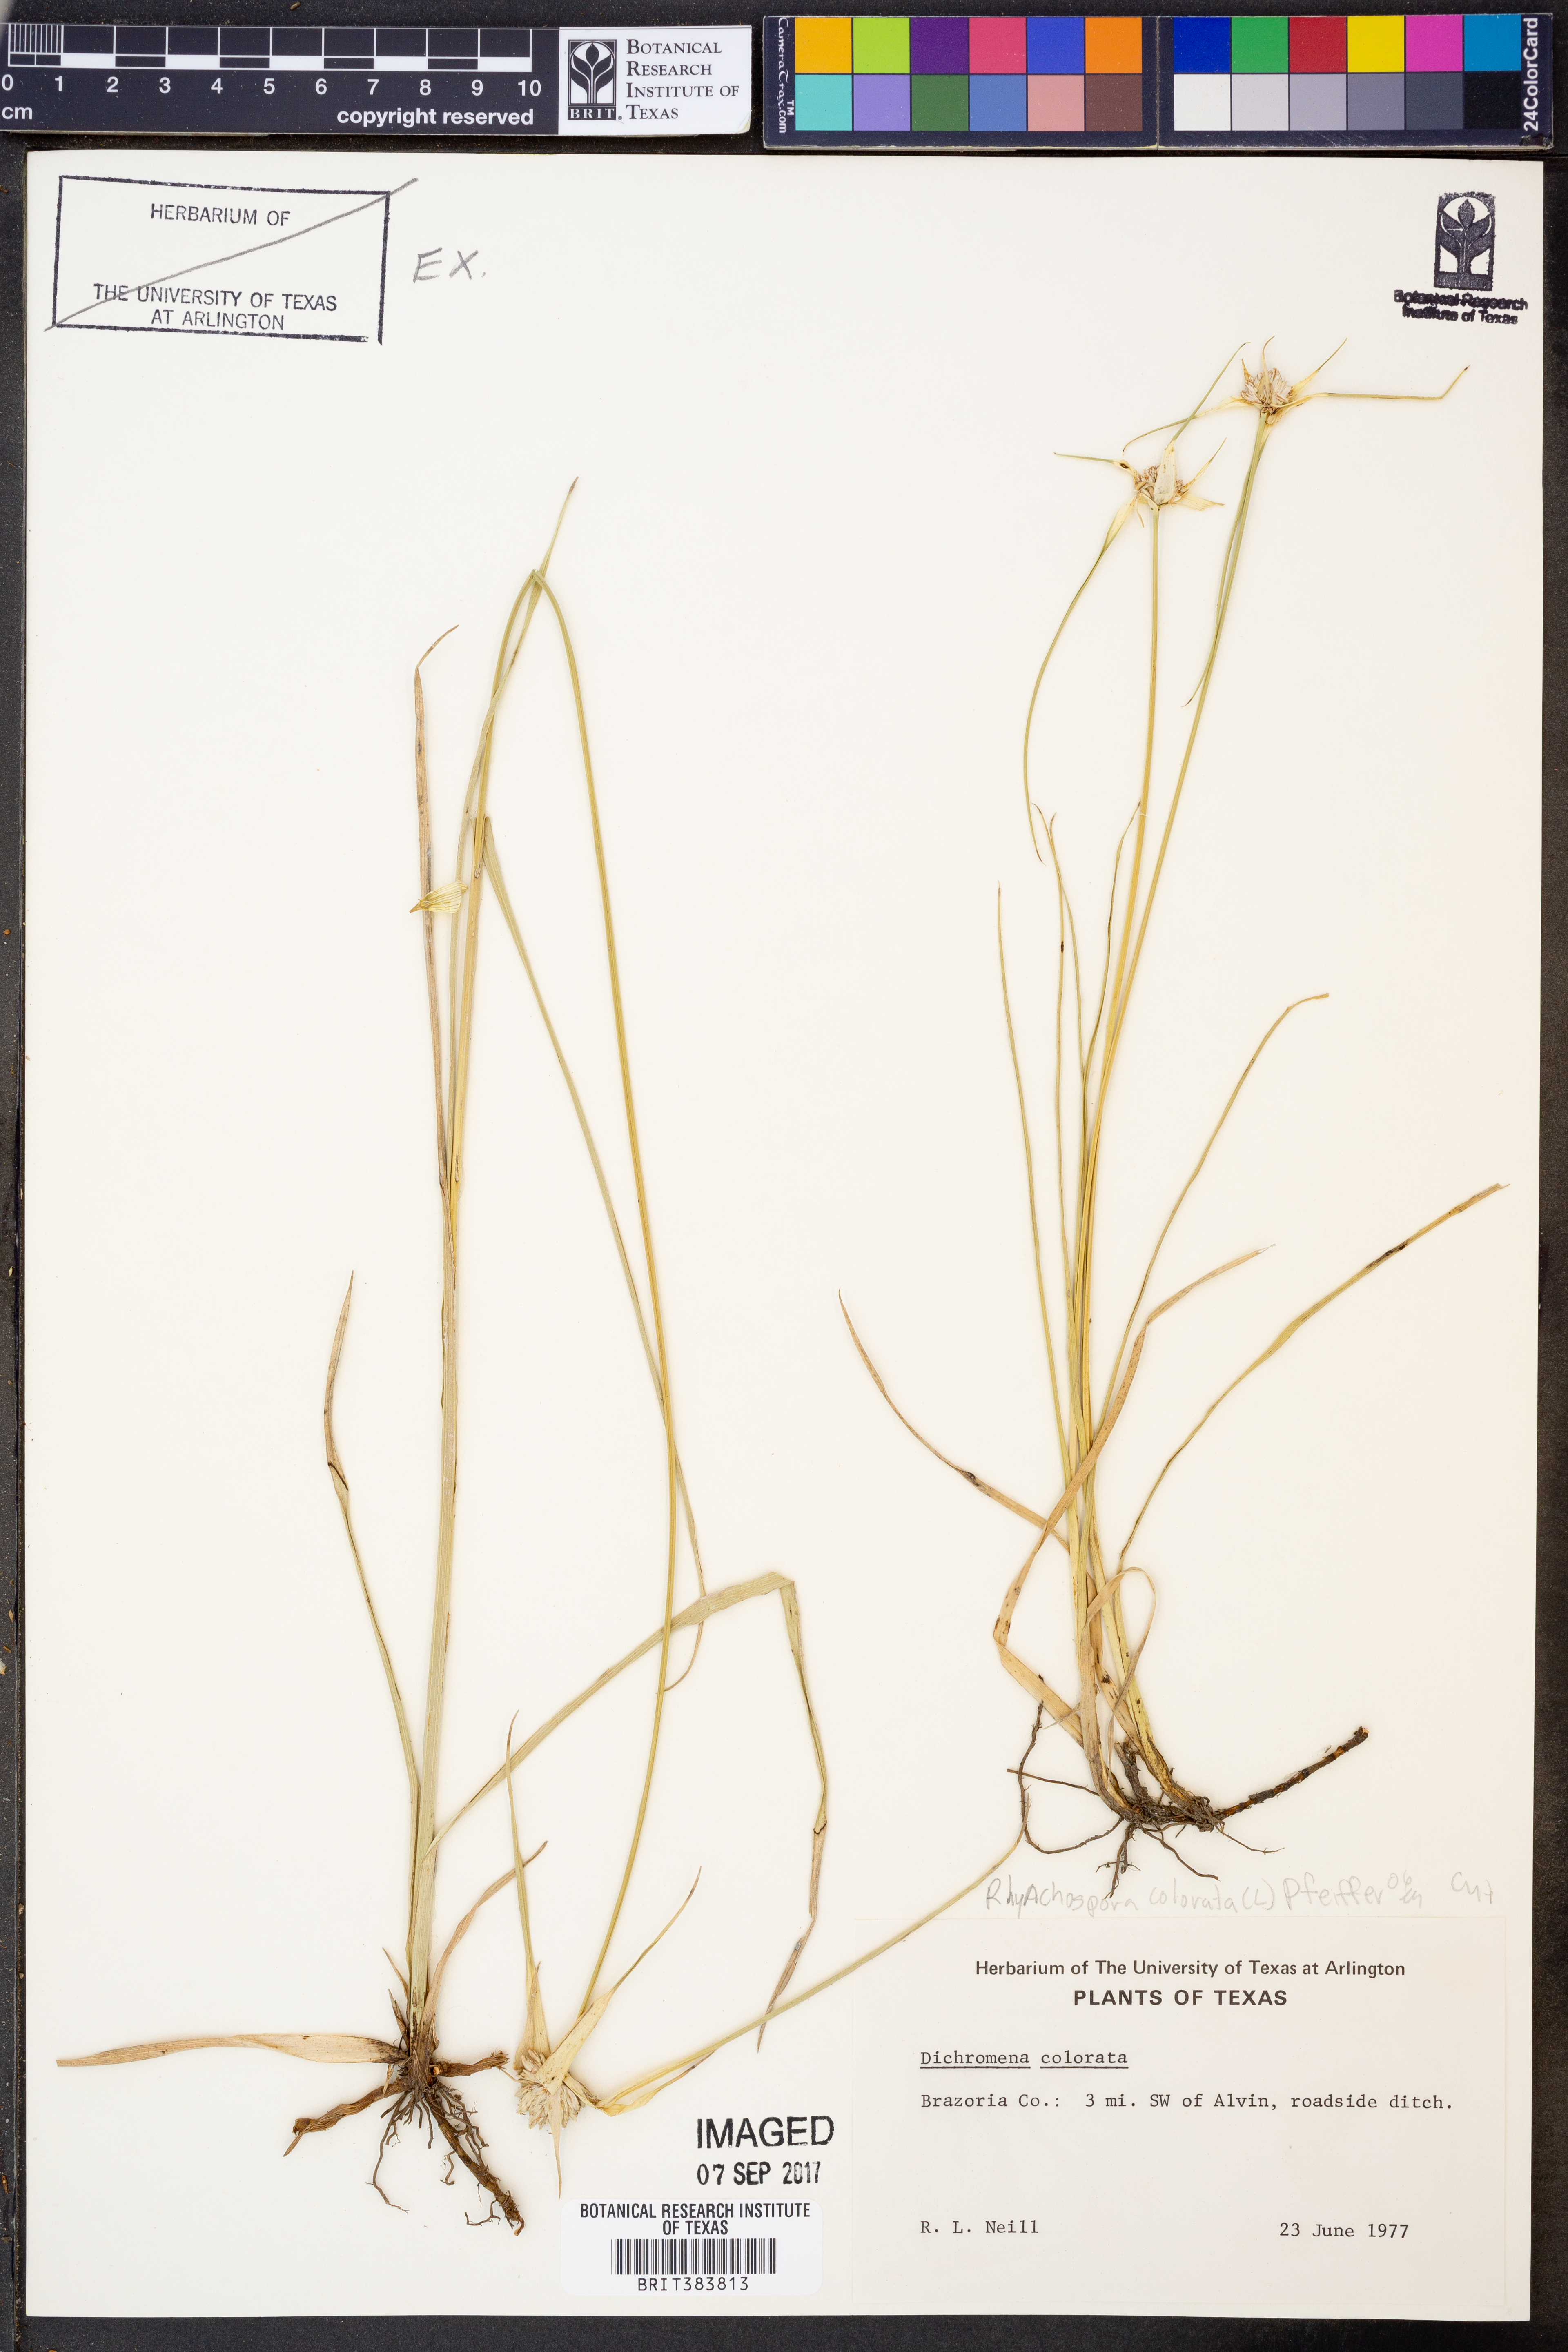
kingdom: Plantae
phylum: Tracheophyta
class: Liliopsida
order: Poales
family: Cyperaceae
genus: Rhynchospora
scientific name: Rhynchospora colorata
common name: Star sedge
